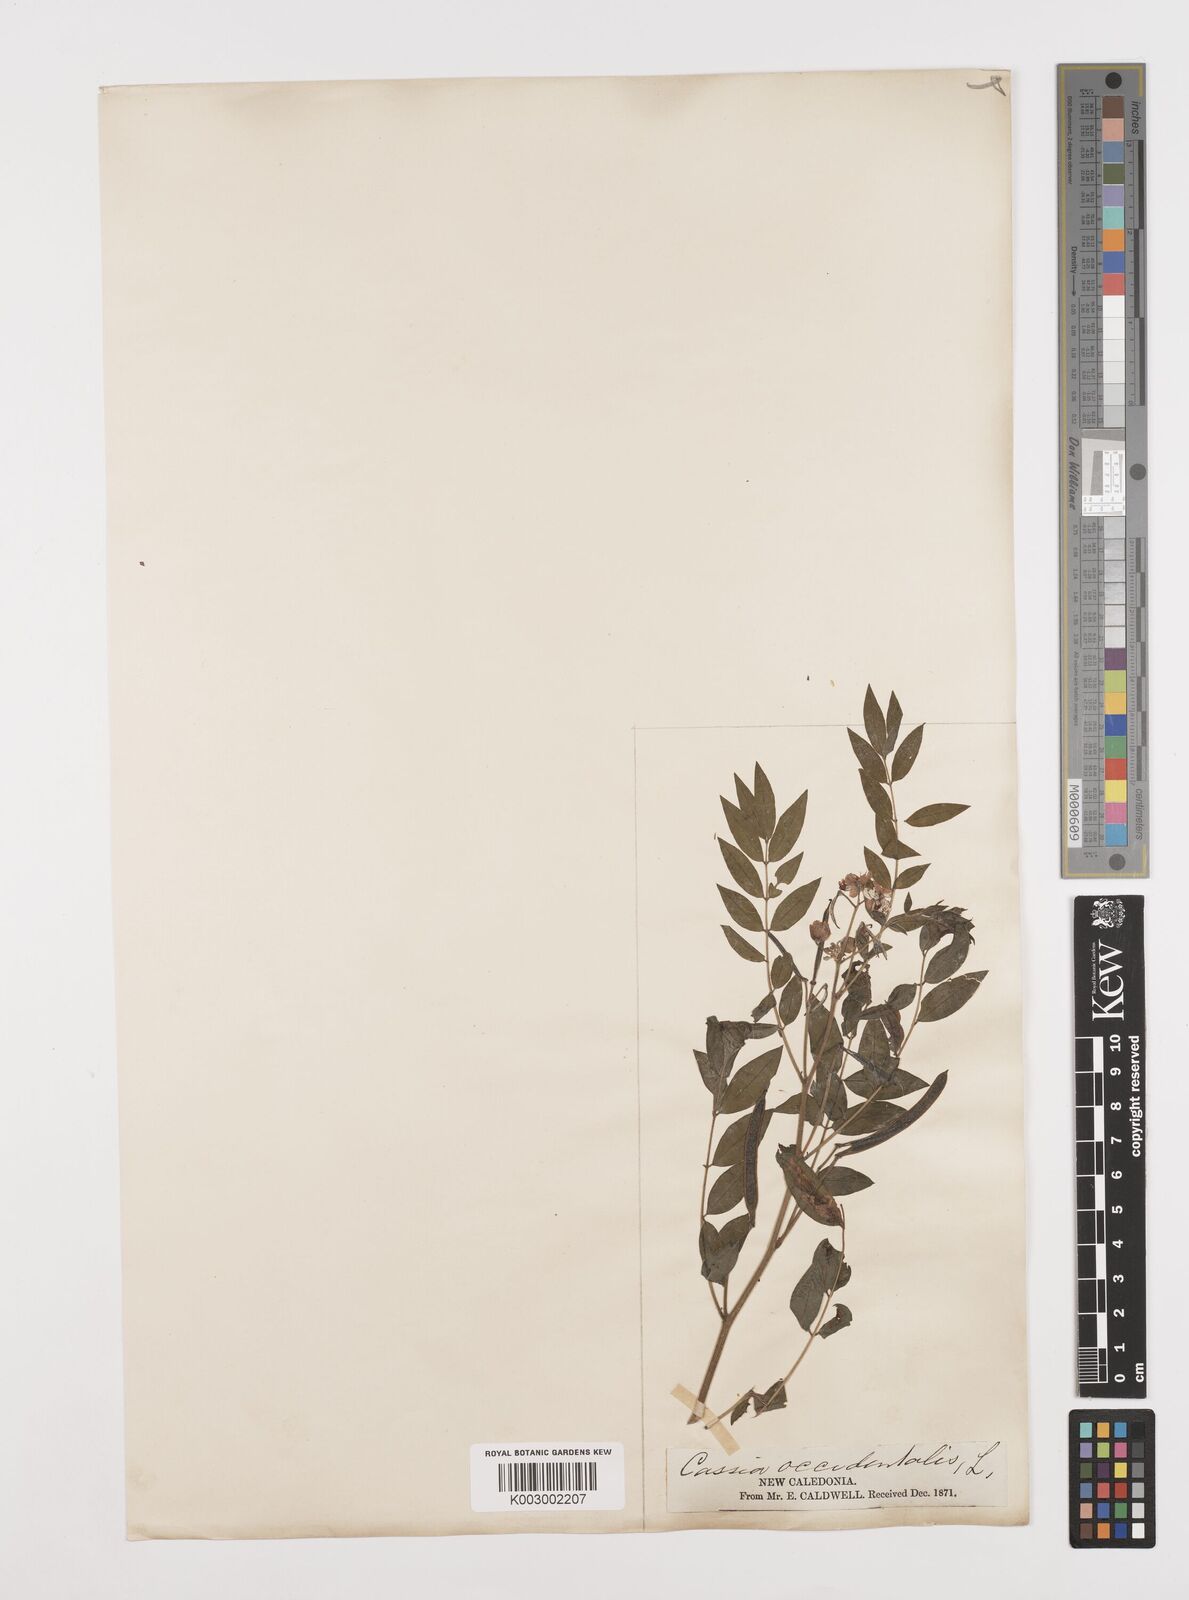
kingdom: Plantae
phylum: Tracheophyta
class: Magnoliopsida
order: Fabales
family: Fabaceae
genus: Senna
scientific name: Senna occidentalis
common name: Septicweed
